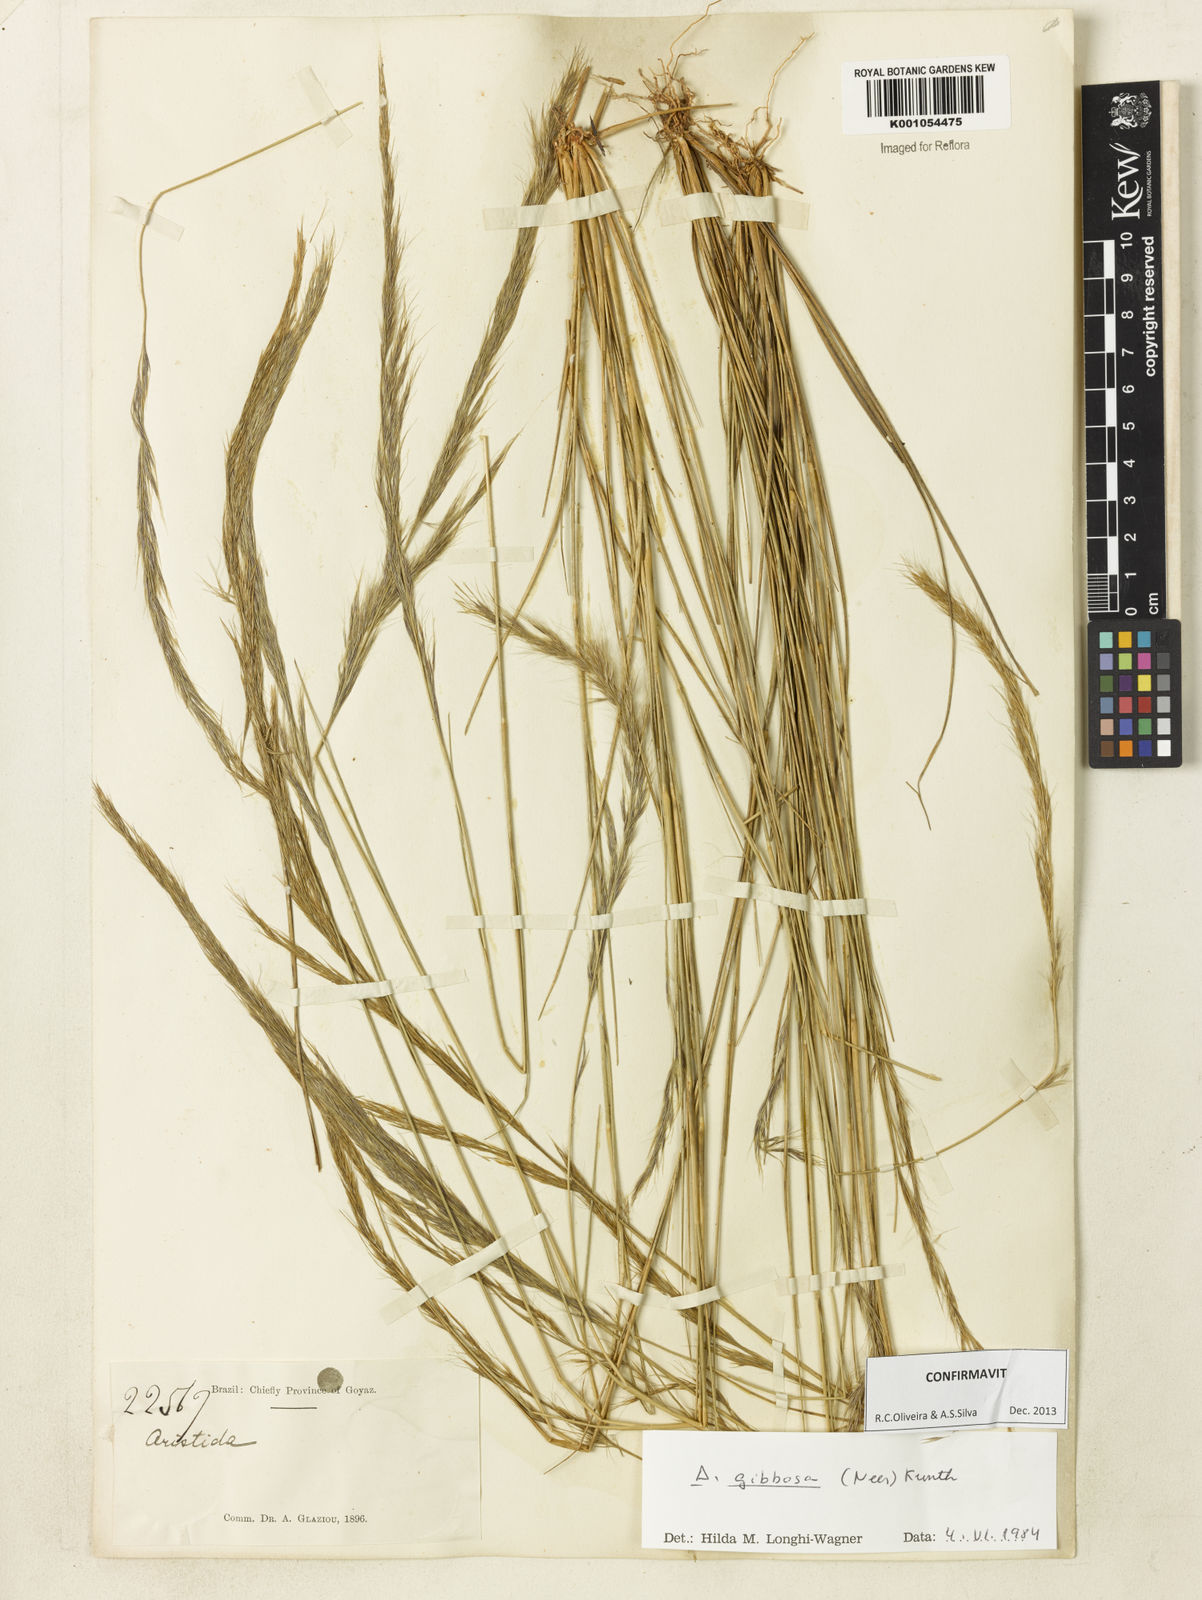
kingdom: Plantae
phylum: Tracheophyta
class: Liliopsida
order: Poales
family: Poaceae
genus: Aristida
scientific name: Aristida gibbosa
